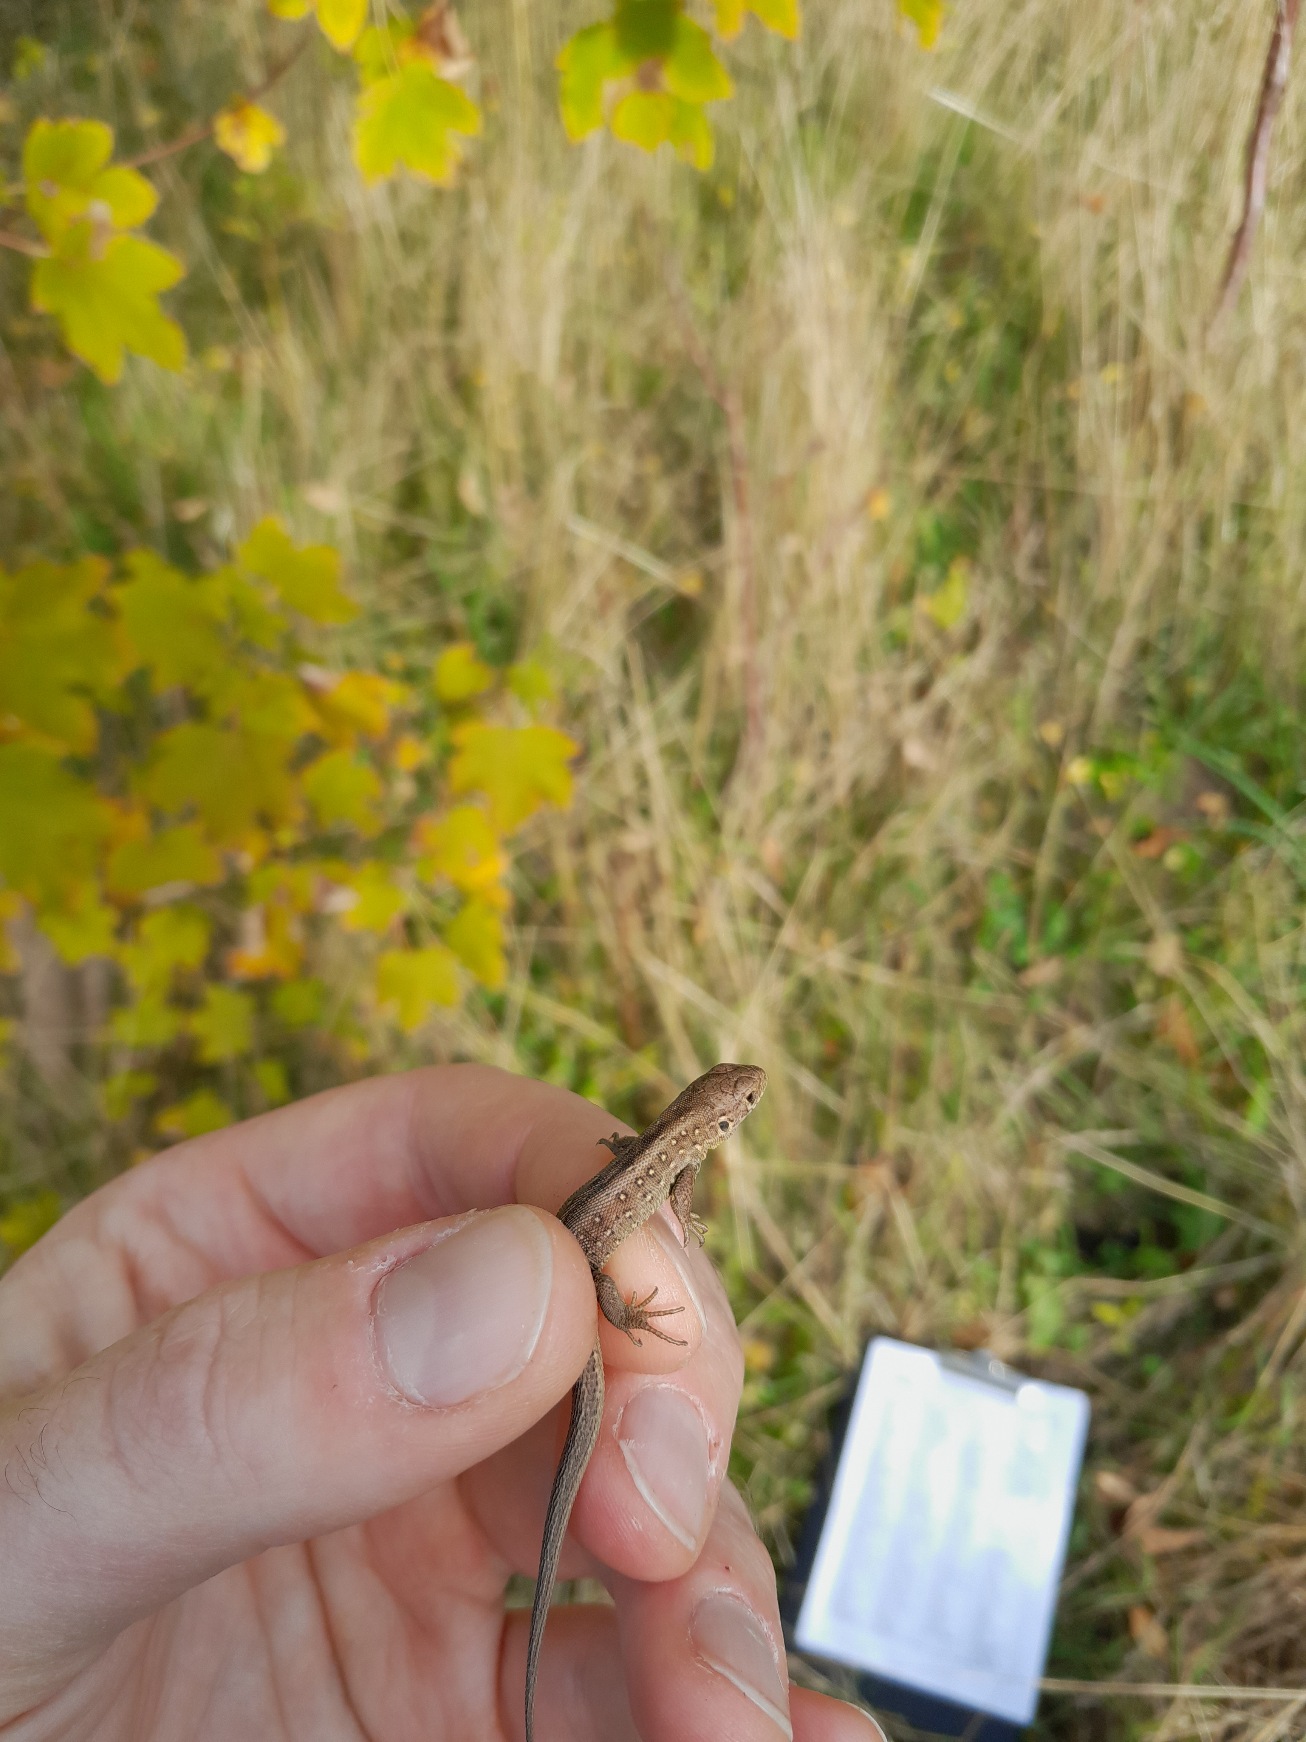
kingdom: Animalia
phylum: Chordata
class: Squamata
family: Lacertidae
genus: Lacerta
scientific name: Lacerta agilis
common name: Markfirben
